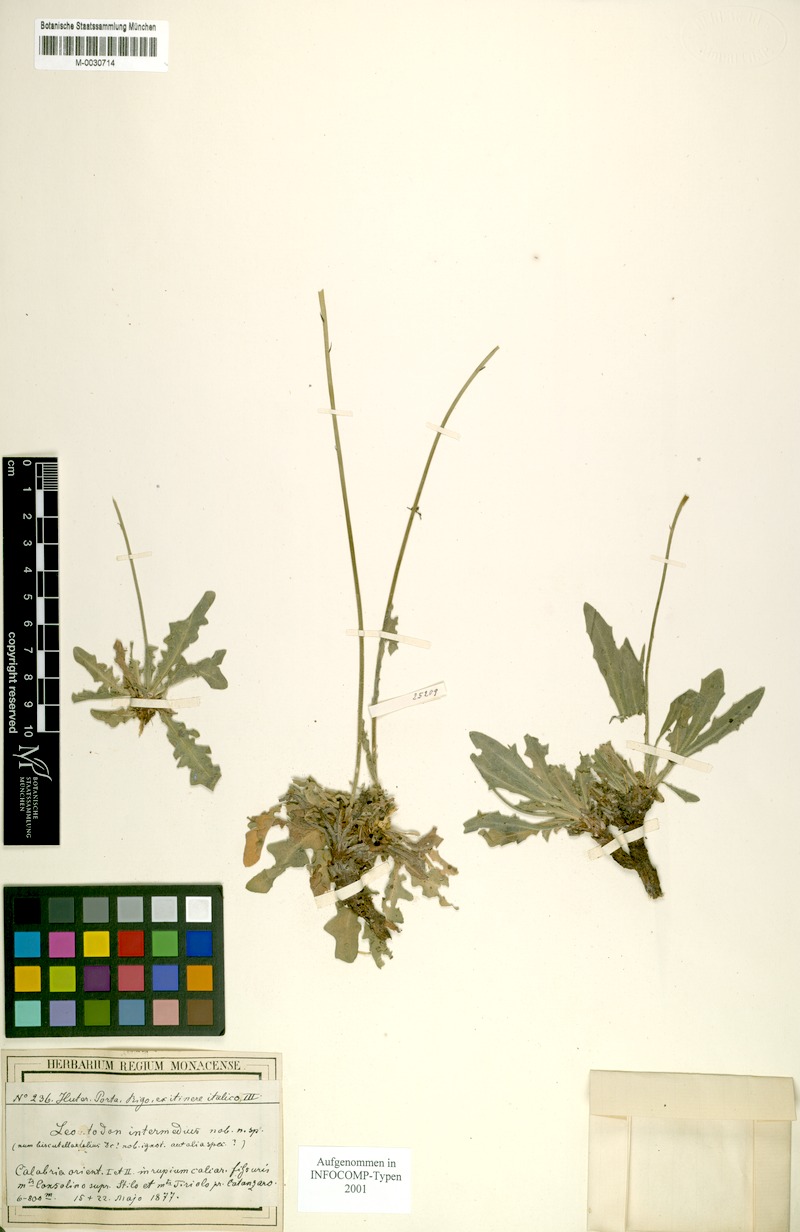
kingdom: Plantae
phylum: Tracheophyta
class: Magnoliopsida
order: Asterales
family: Asteraceae
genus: Leontodon
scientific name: Leontodon intermedius
